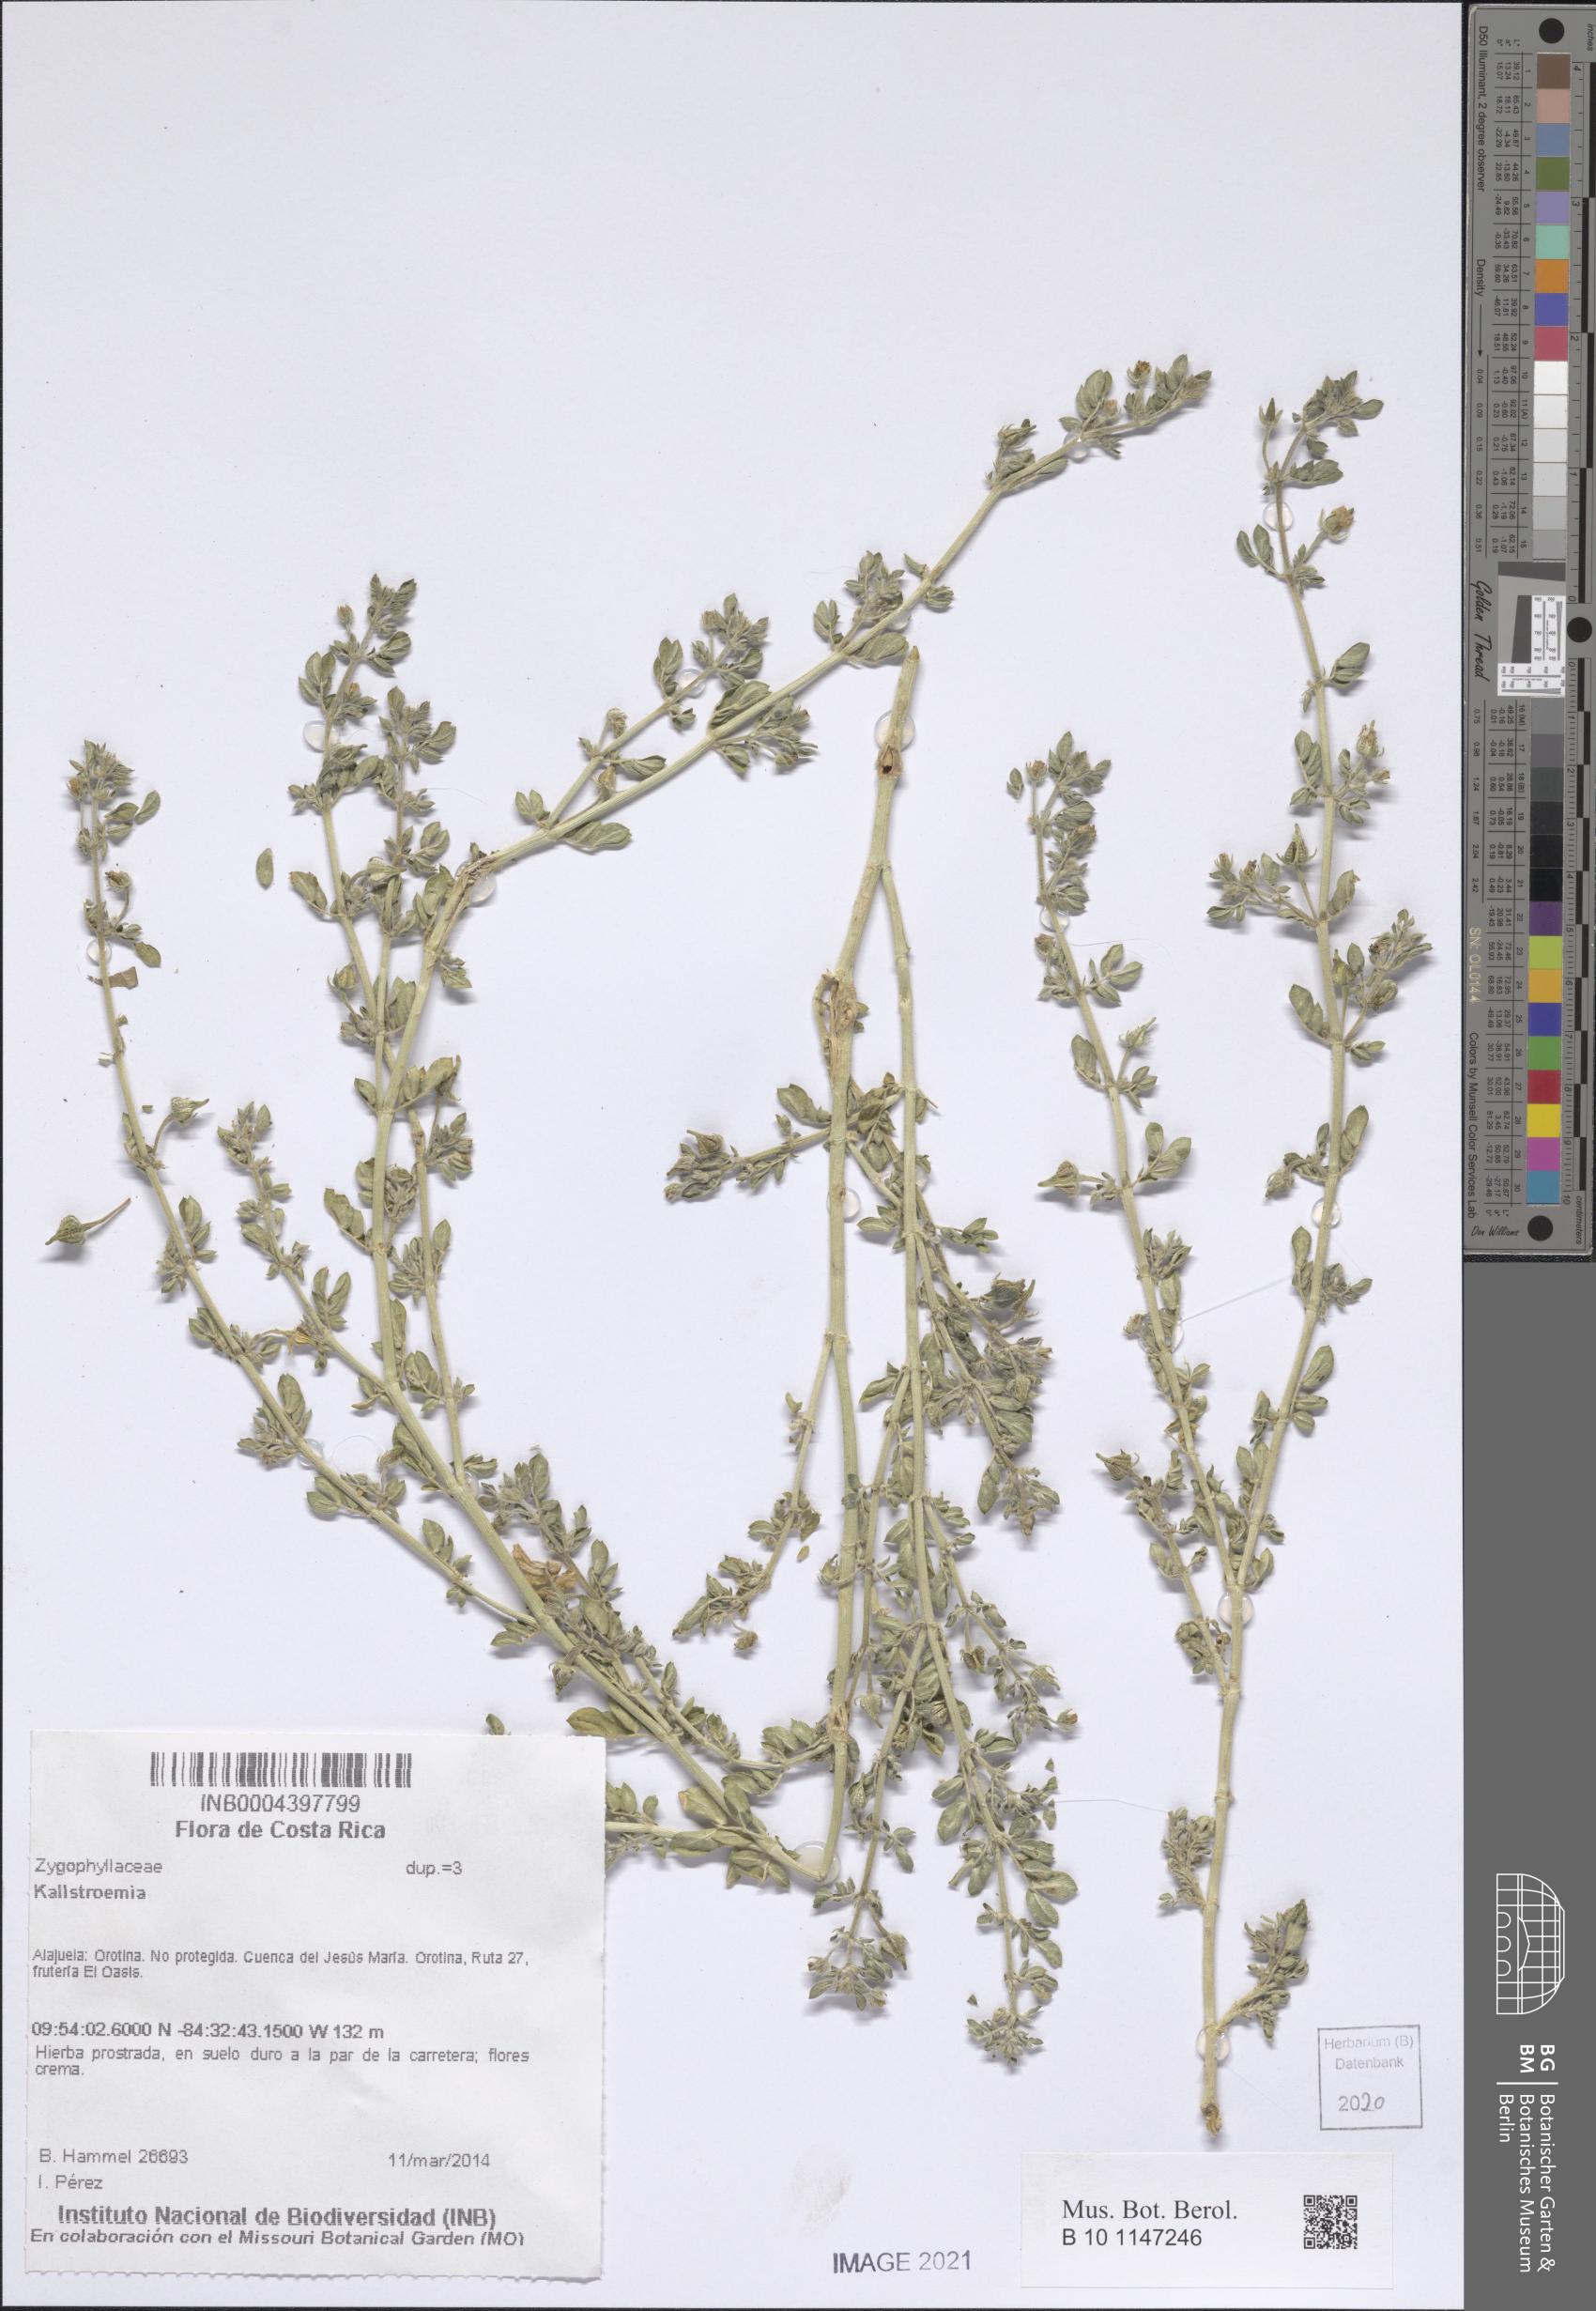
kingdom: Plantae
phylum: Tracheophyta
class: Magnoliopsida
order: Zygophyllales
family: Zygophyllaceae
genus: Kallstroemia
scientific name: Kallstroemia
